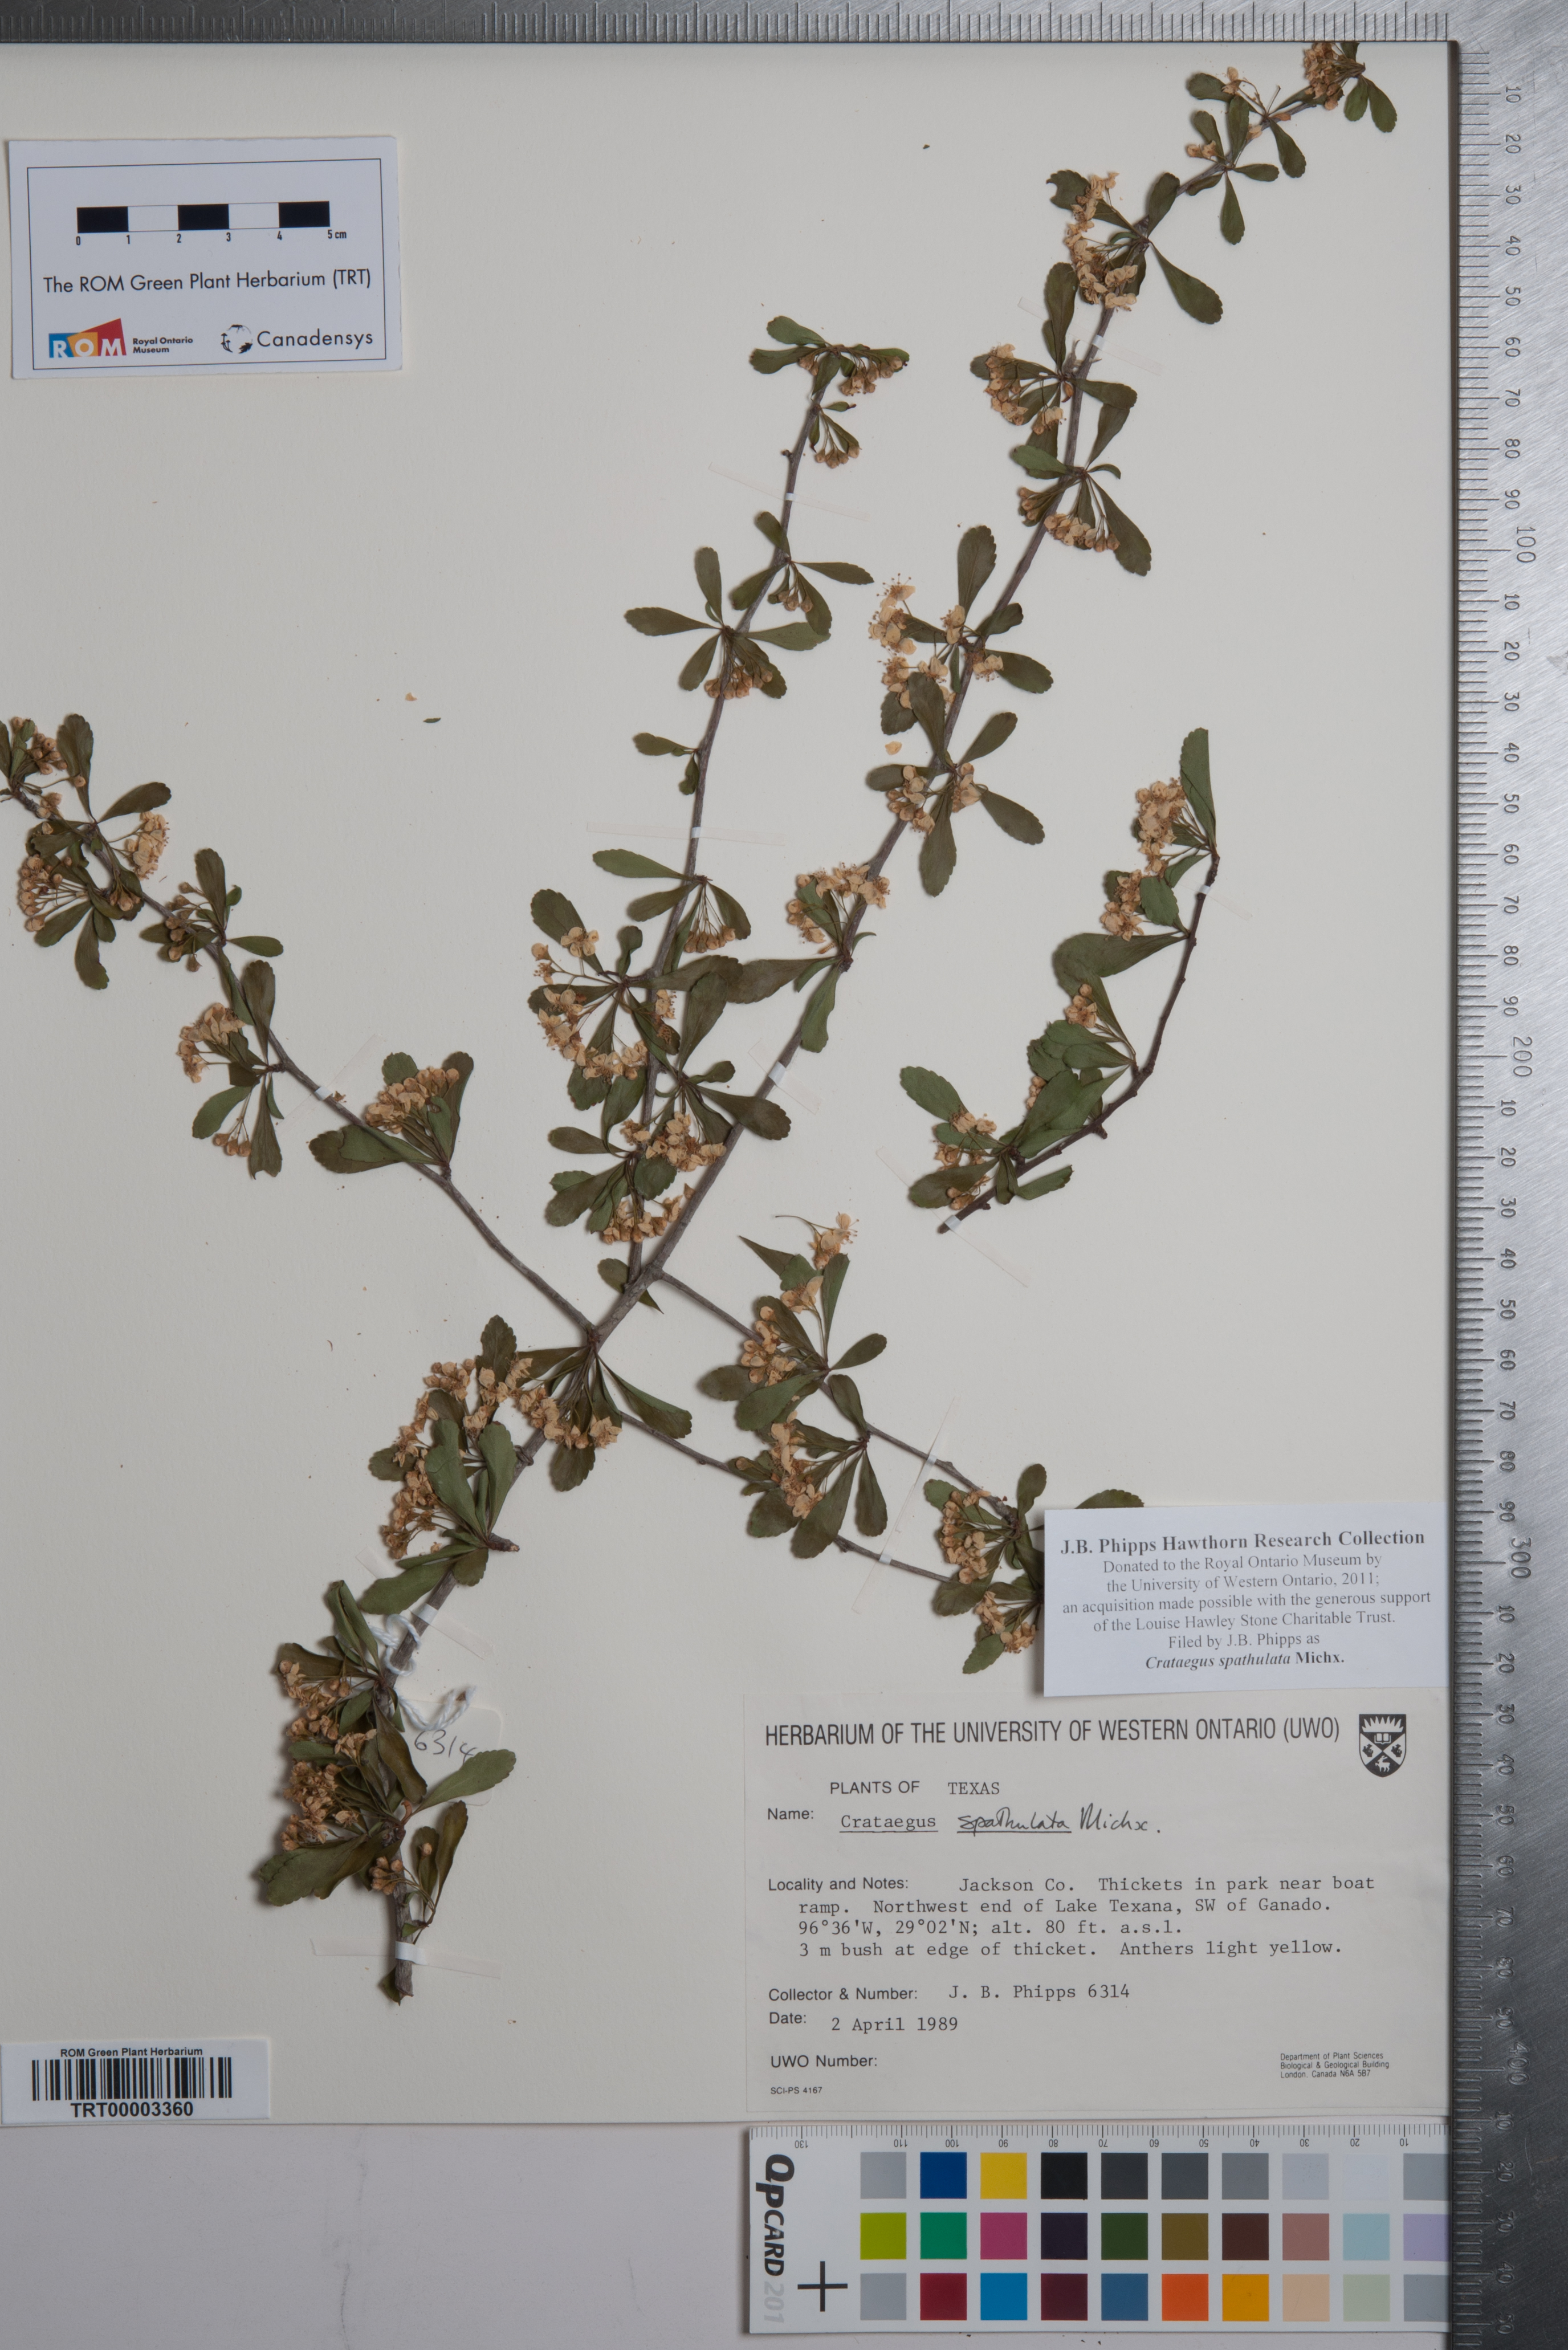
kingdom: Plantae
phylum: Tracheophyta
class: Magnoliopsida
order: Rosales
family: Rosaceae
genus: Crataegus
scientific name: Crataegus spathulata
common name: Littlehip hawthorn
